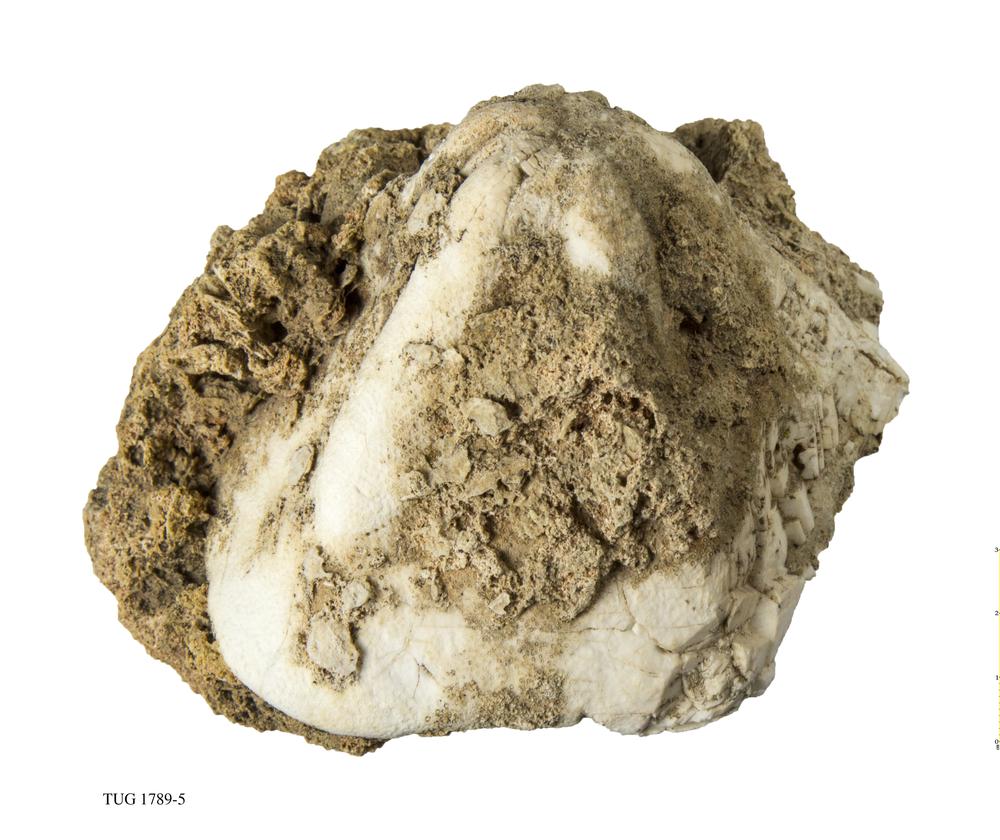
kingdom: Animalia
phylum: Echinodermata
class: Echinoidea
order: Clypeasteroida
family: Clypeasteridae
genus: Clypeaster
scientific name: Clypeaster
